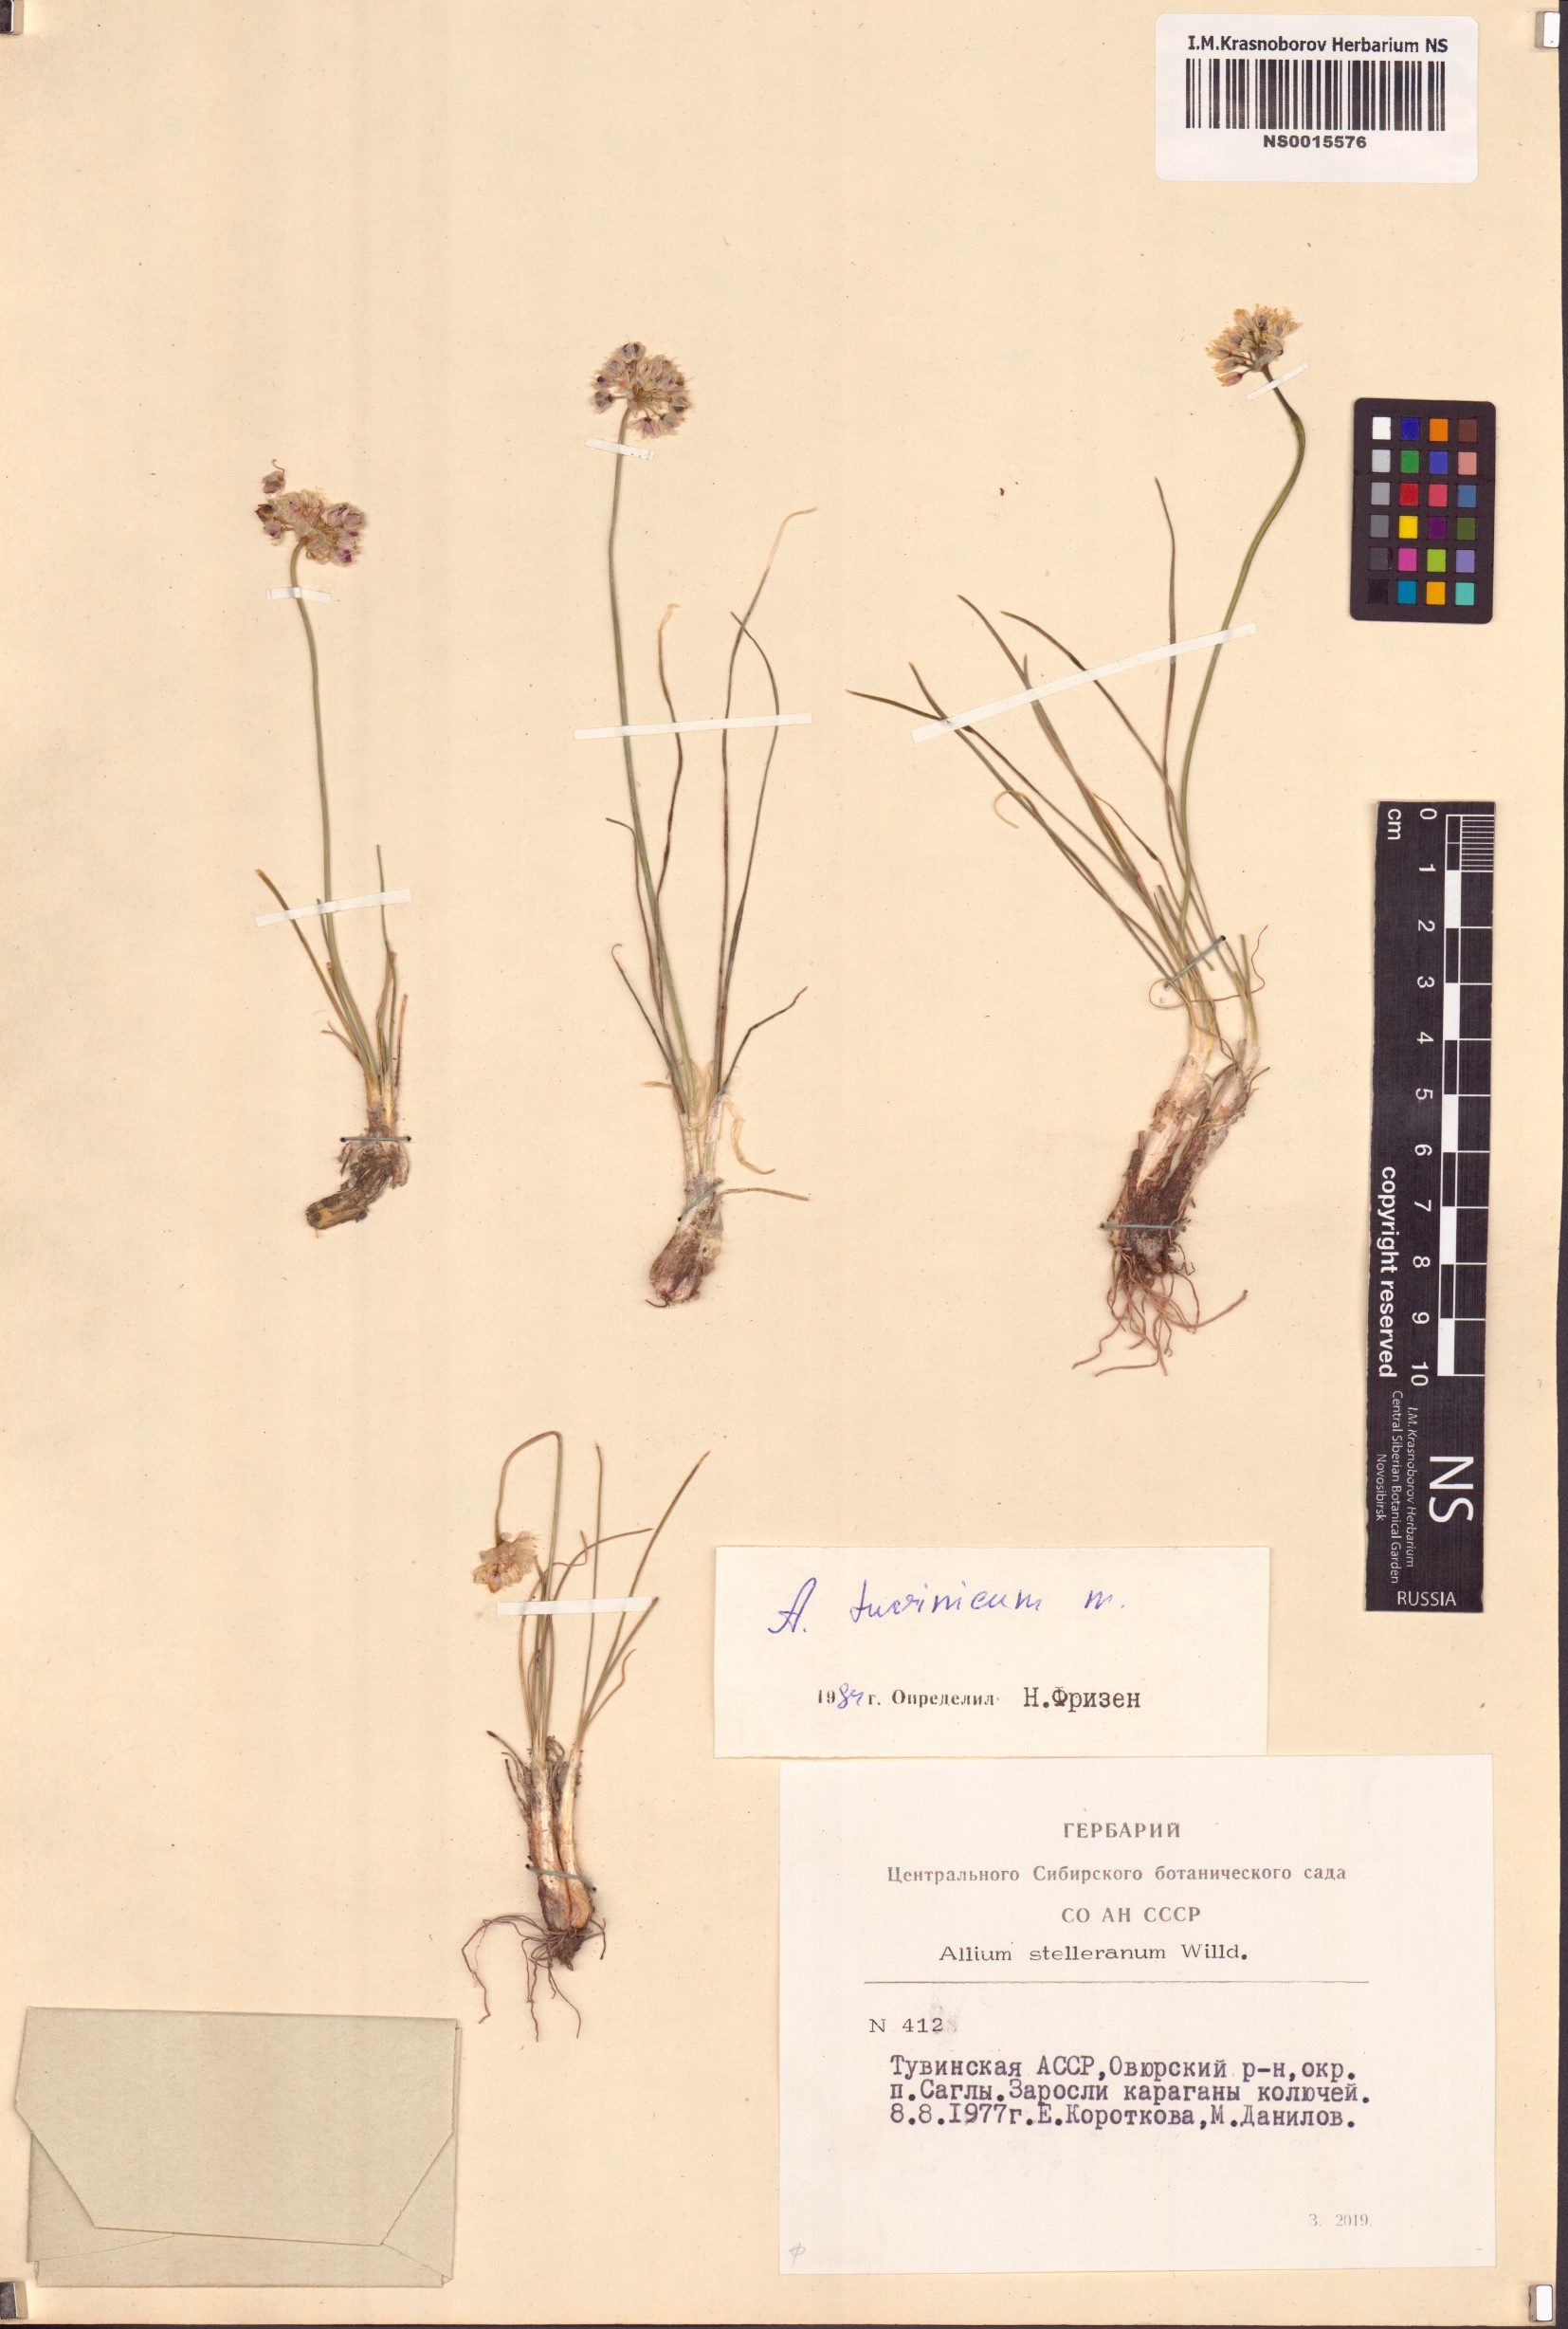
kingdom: Plantae
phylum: Tracheophyta
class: Liliopsida
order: Asparagales
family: Amaryllidaceae
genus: Allium
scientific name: Allium tuvinicum
